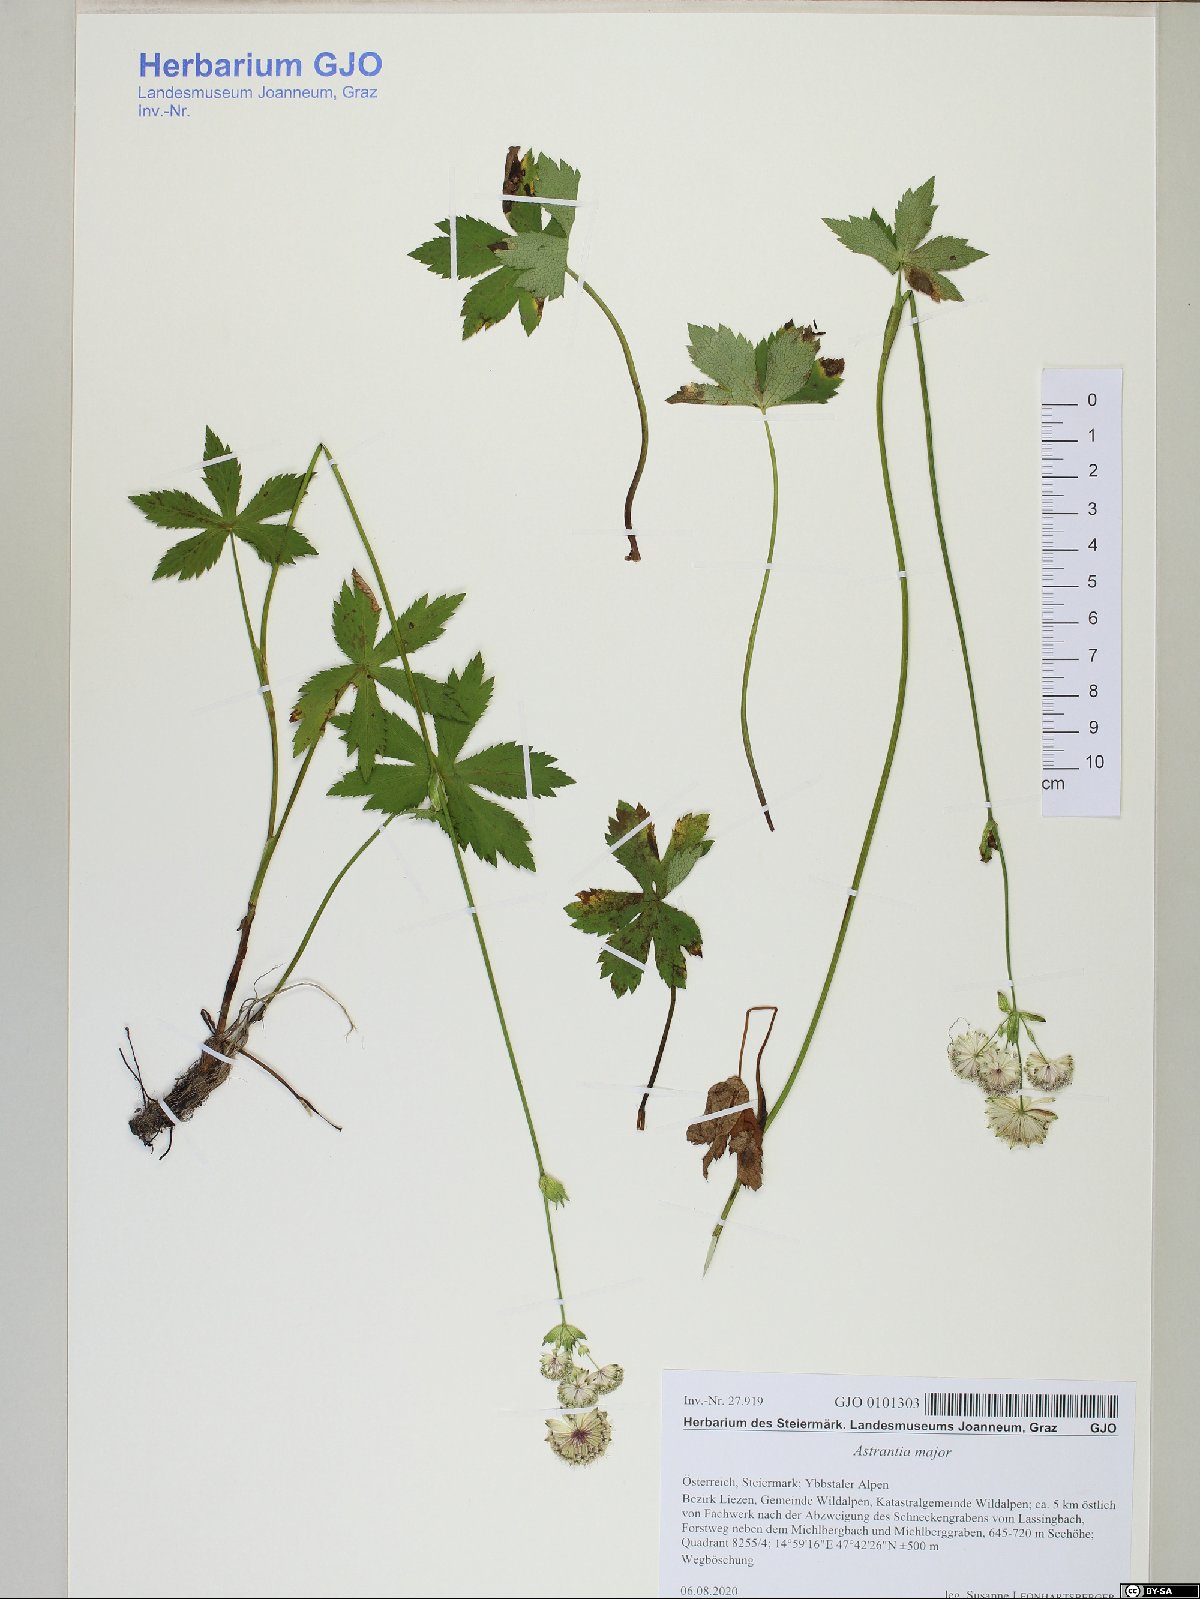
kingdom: Plantae
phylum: Tracheophyta
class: Magnoliopsida
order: Apiales
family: Apiaceae
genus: Astrantia
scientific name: Astrantia major
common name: Greater masterwort
